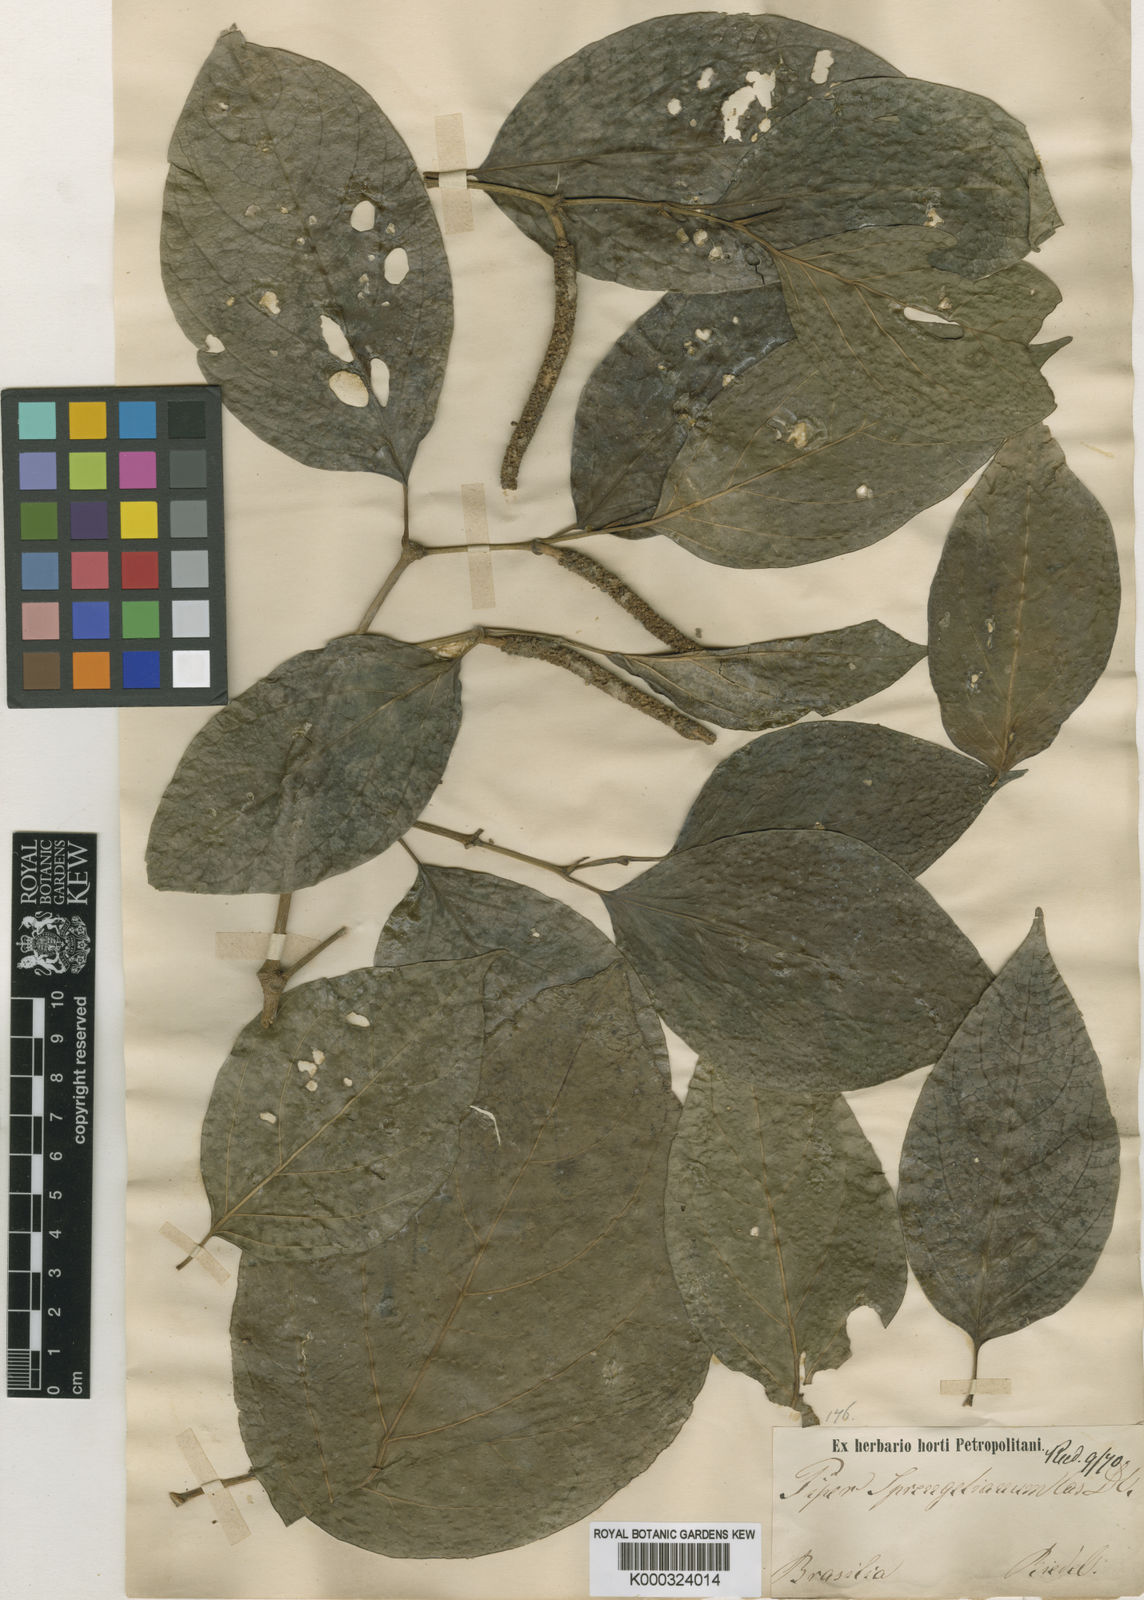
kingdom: Plantae
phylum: Tracheophyta
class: Magnoliopsida
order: Piperales
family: Piperaceae
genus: Piper
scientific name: Piper sprengelianum
